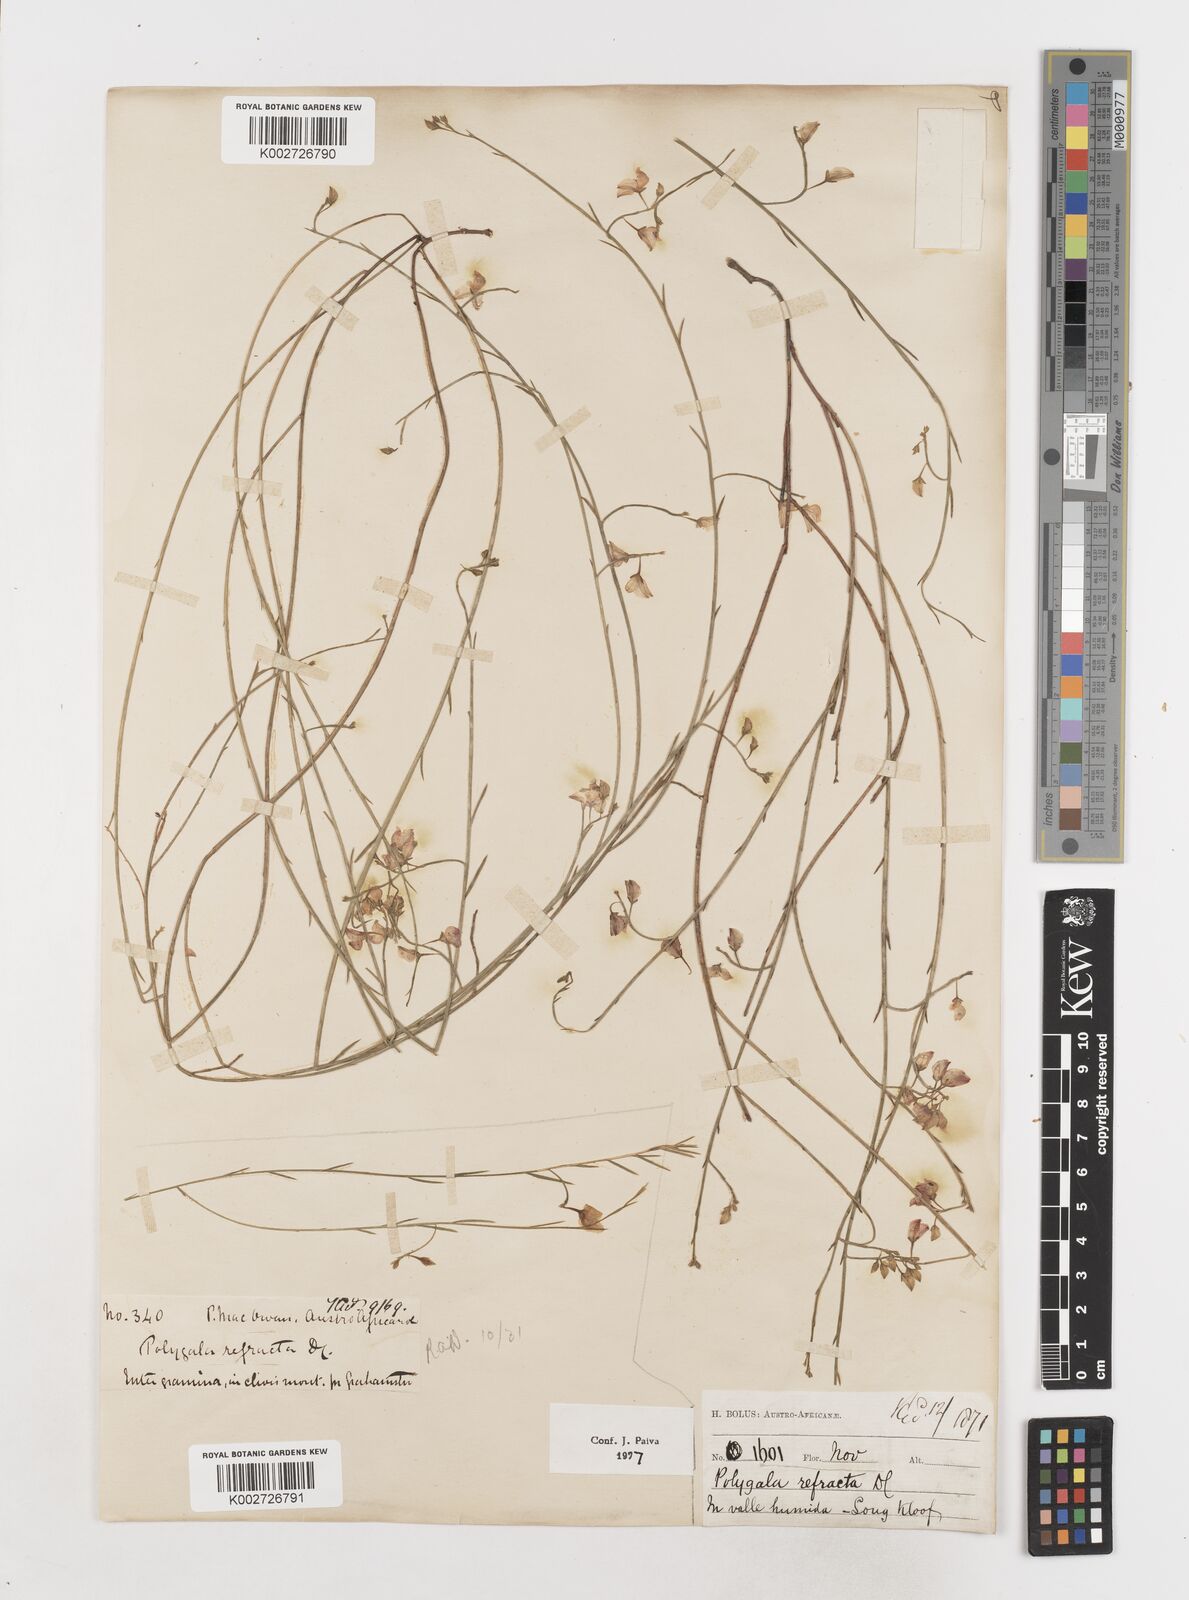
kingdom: Plantae
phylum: Tracheophyta
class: Magnoliopsida
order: Fabales
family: Polygalaceae
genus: Polygala
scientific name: Polygala refracta
